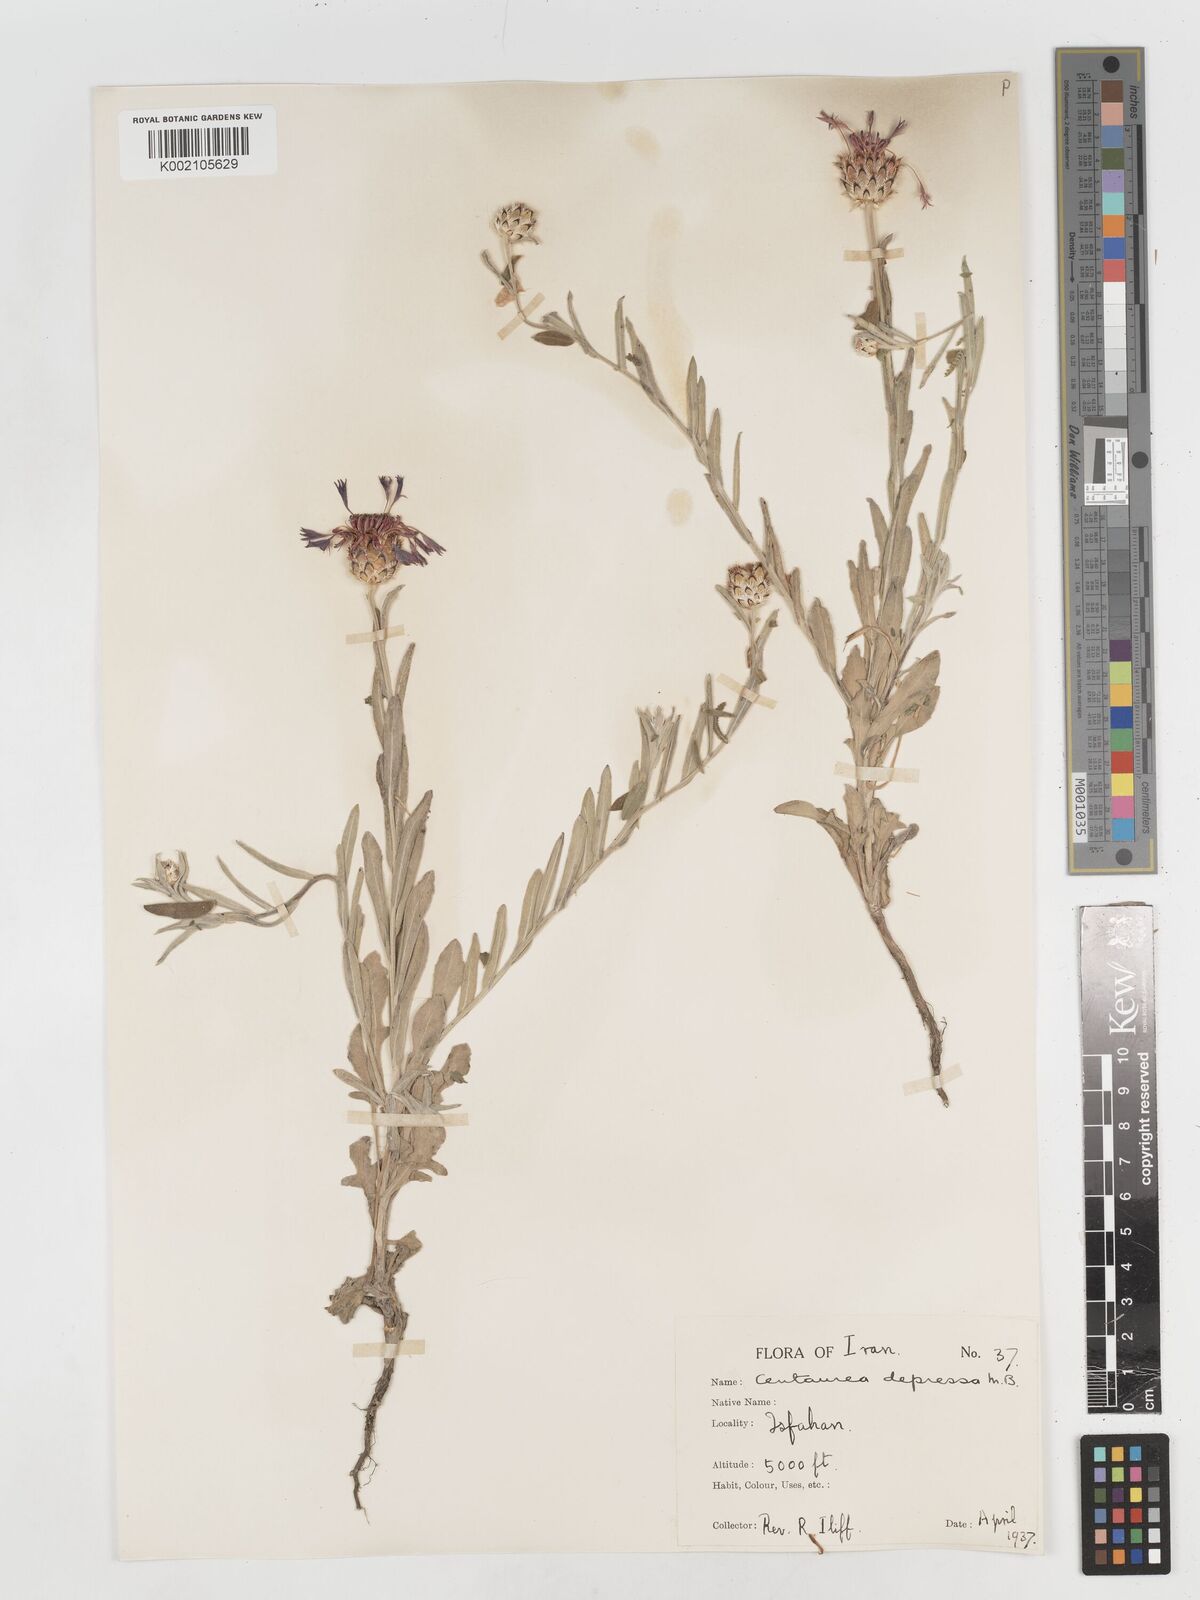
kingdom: Plantae
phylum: Tracheophyta
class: Magnoliopsida
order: Asterales
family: Asteraceae
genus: Centaurea
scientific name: Centaurea depressa
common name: Iranian knapweed
